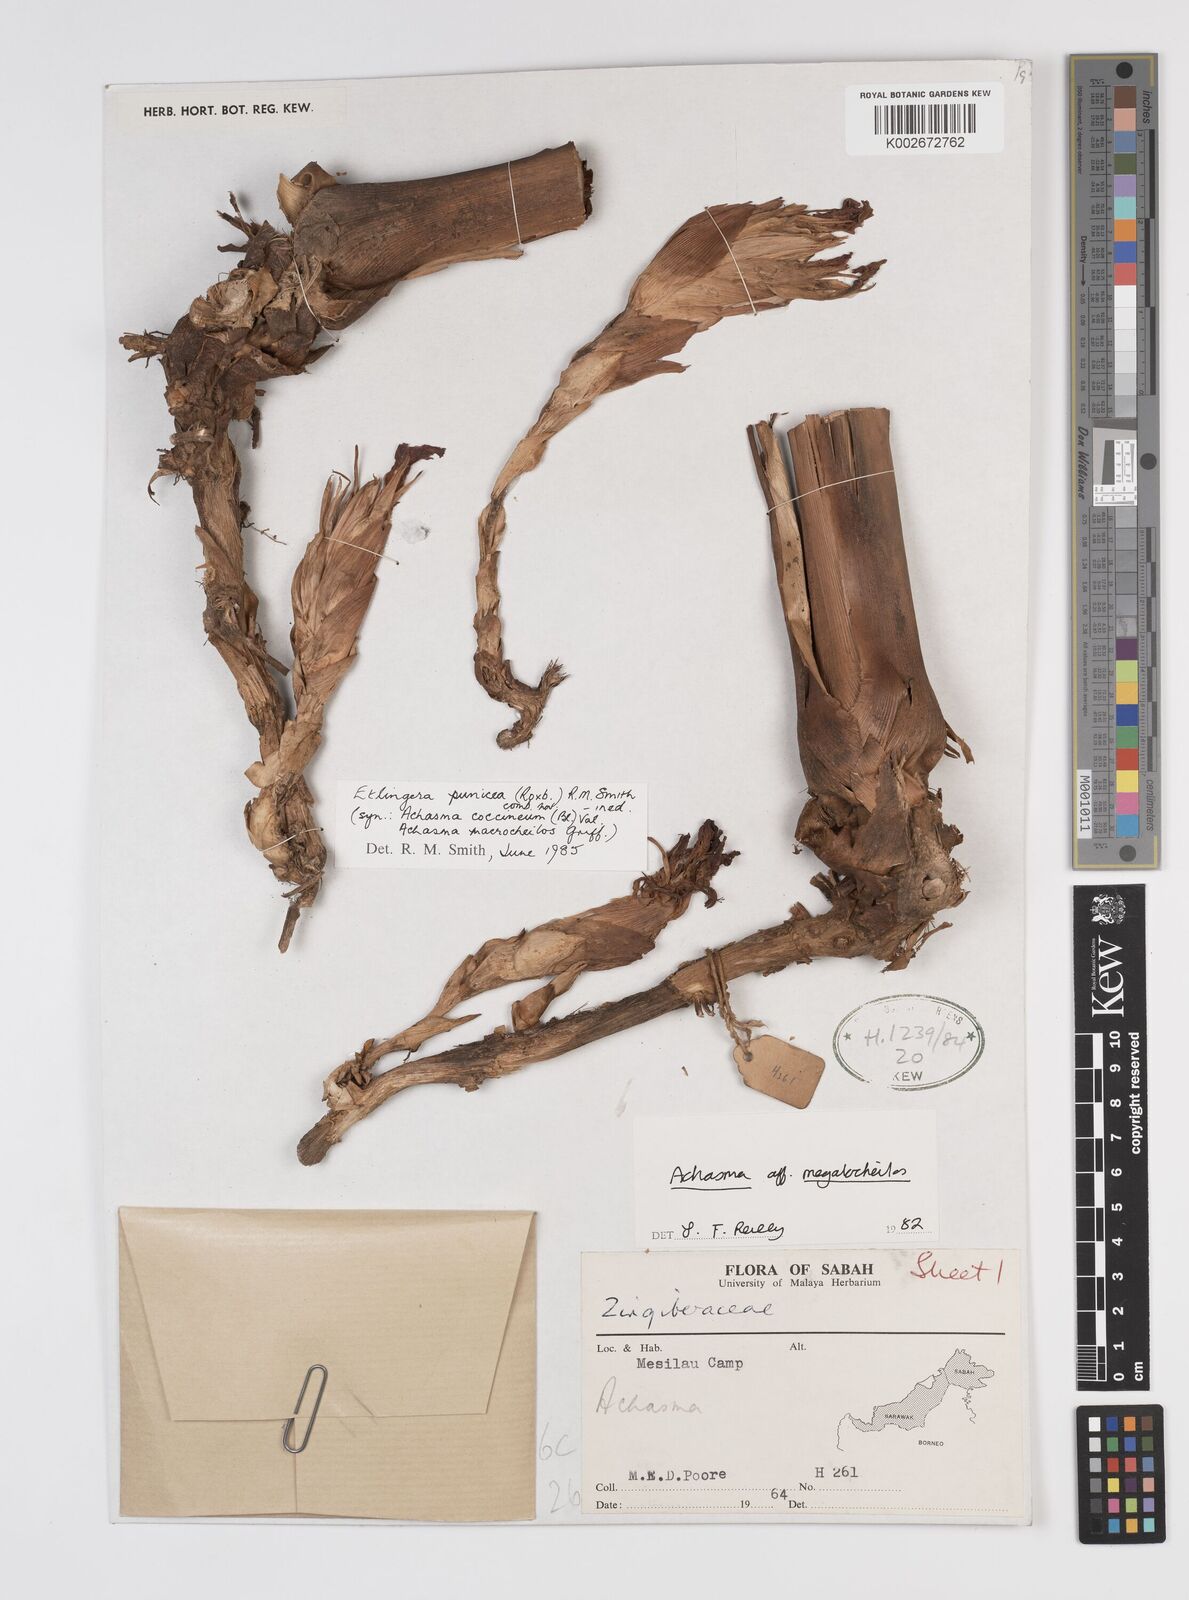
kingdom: Plantae
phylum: Tracheophyta
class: Liliopsida
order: Zingiberales
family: Zingiberaceae
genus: Etlingera
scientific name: Etlingera punicea
